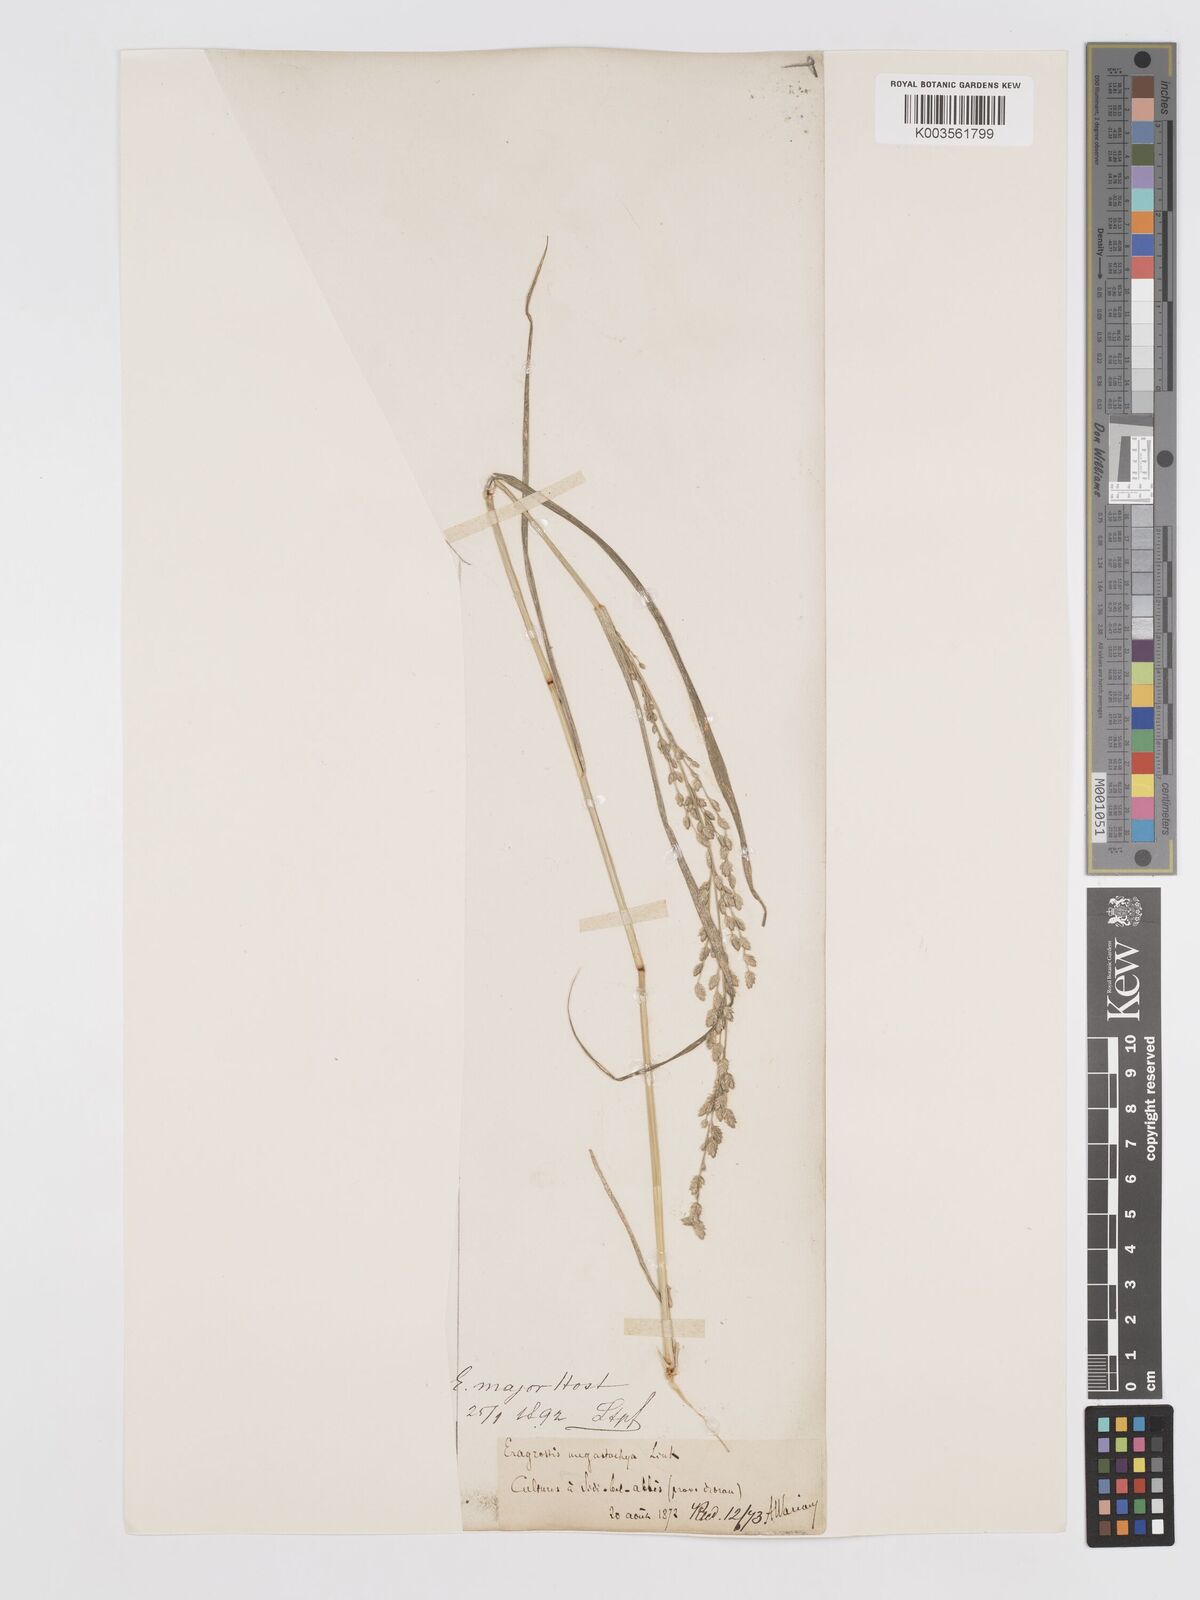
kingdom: Plantae
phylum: Tracheophyta
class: Liliopsida
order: Poales
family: Poaceae
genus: Eragrostis
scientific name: Eragrostis cilianensis
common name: Stinkgrass
